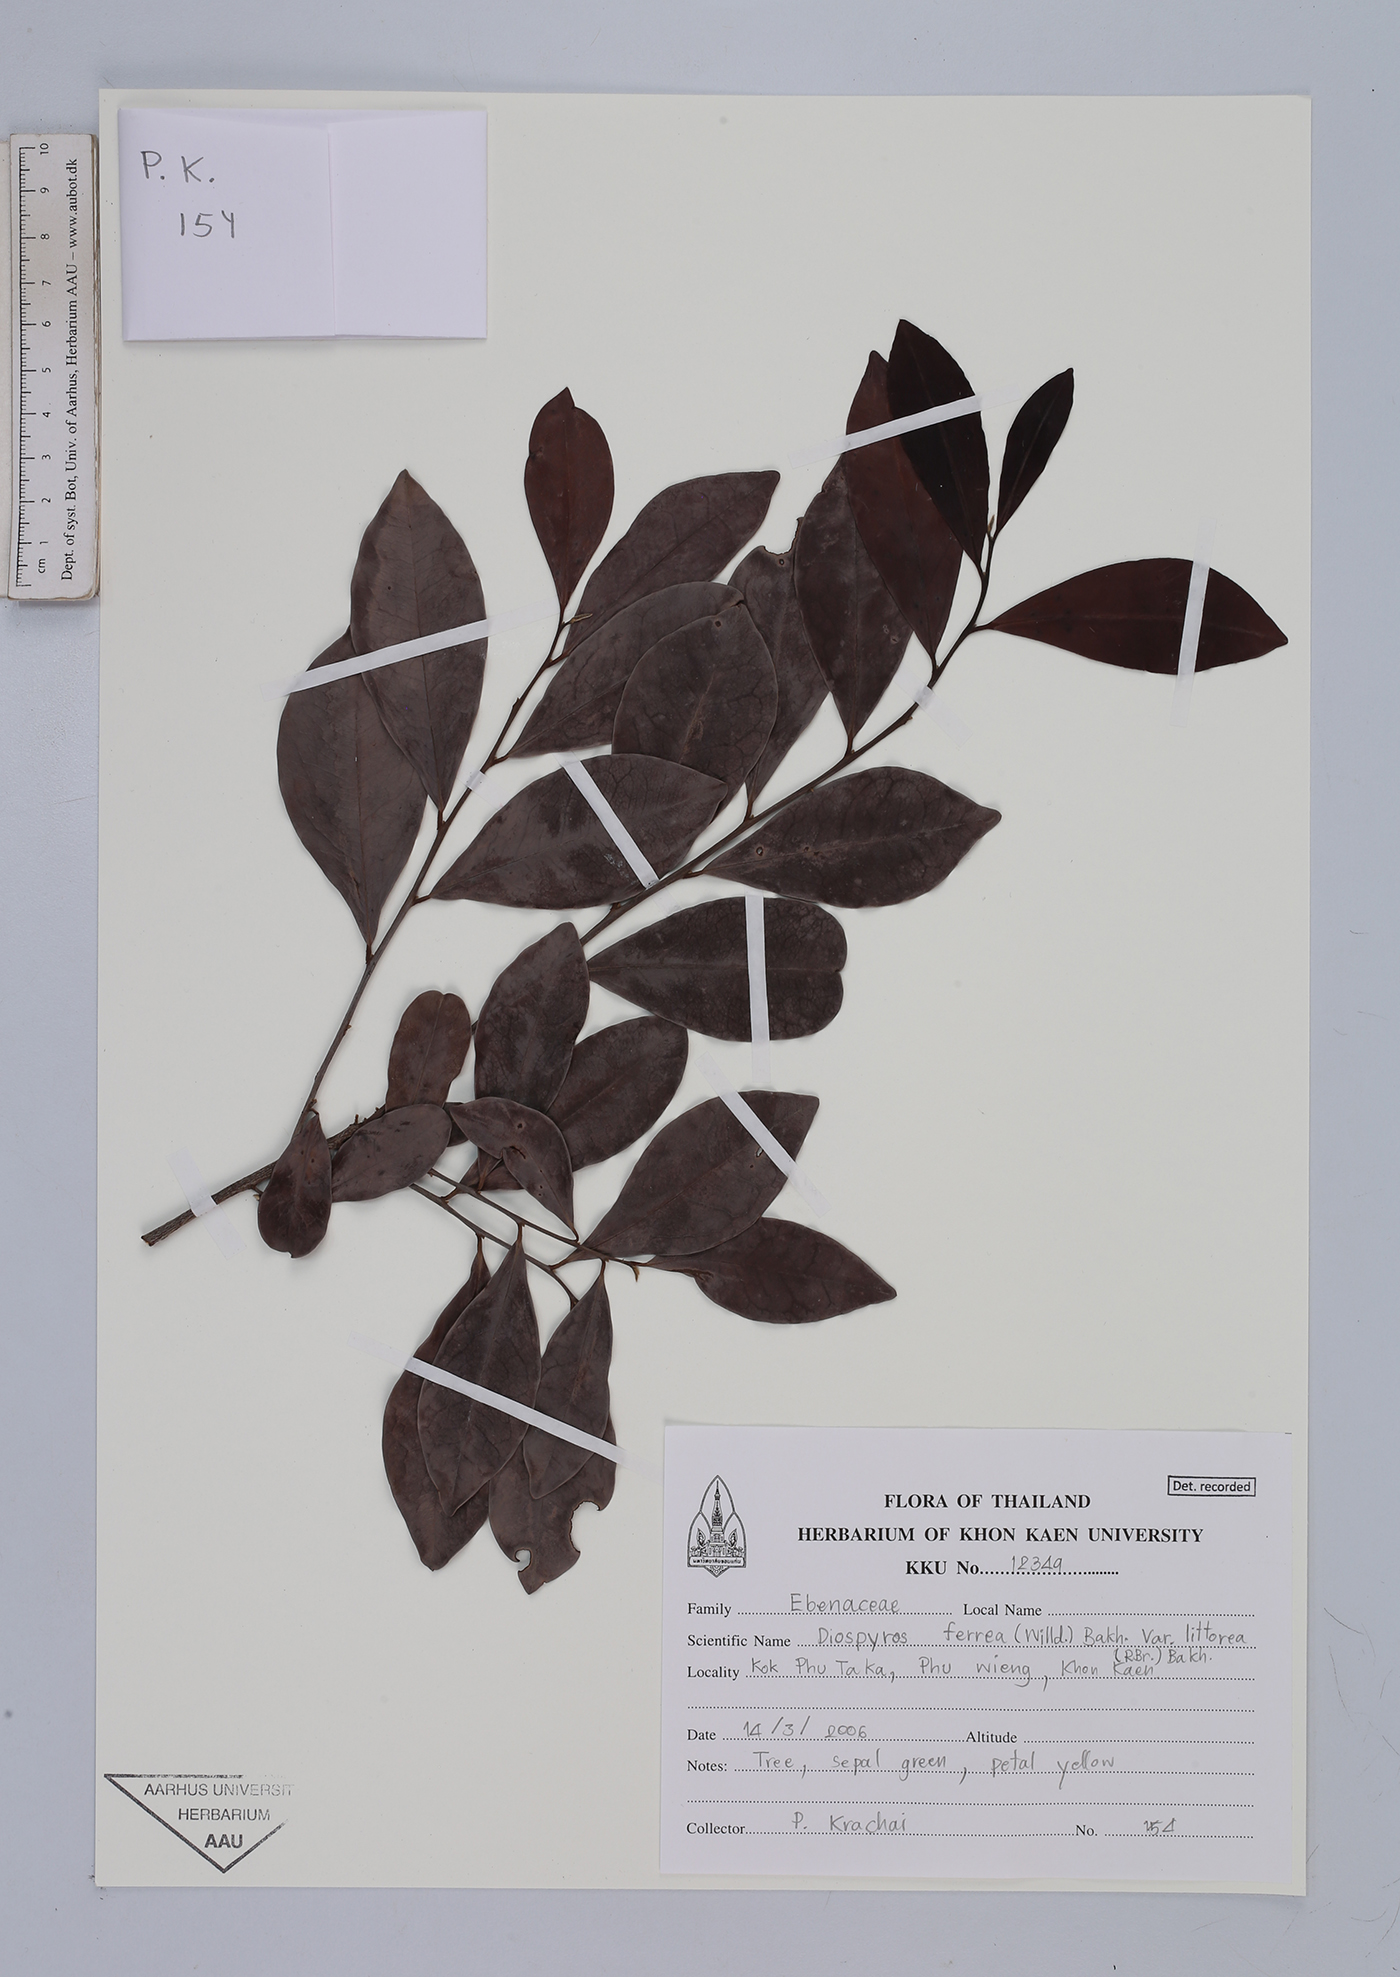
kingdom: Plantae
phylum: Tracheophyta
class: Magnoliopsida
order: Ericales
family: Ebenaceae
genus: Diospyros
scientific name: Diospyros ferrea
